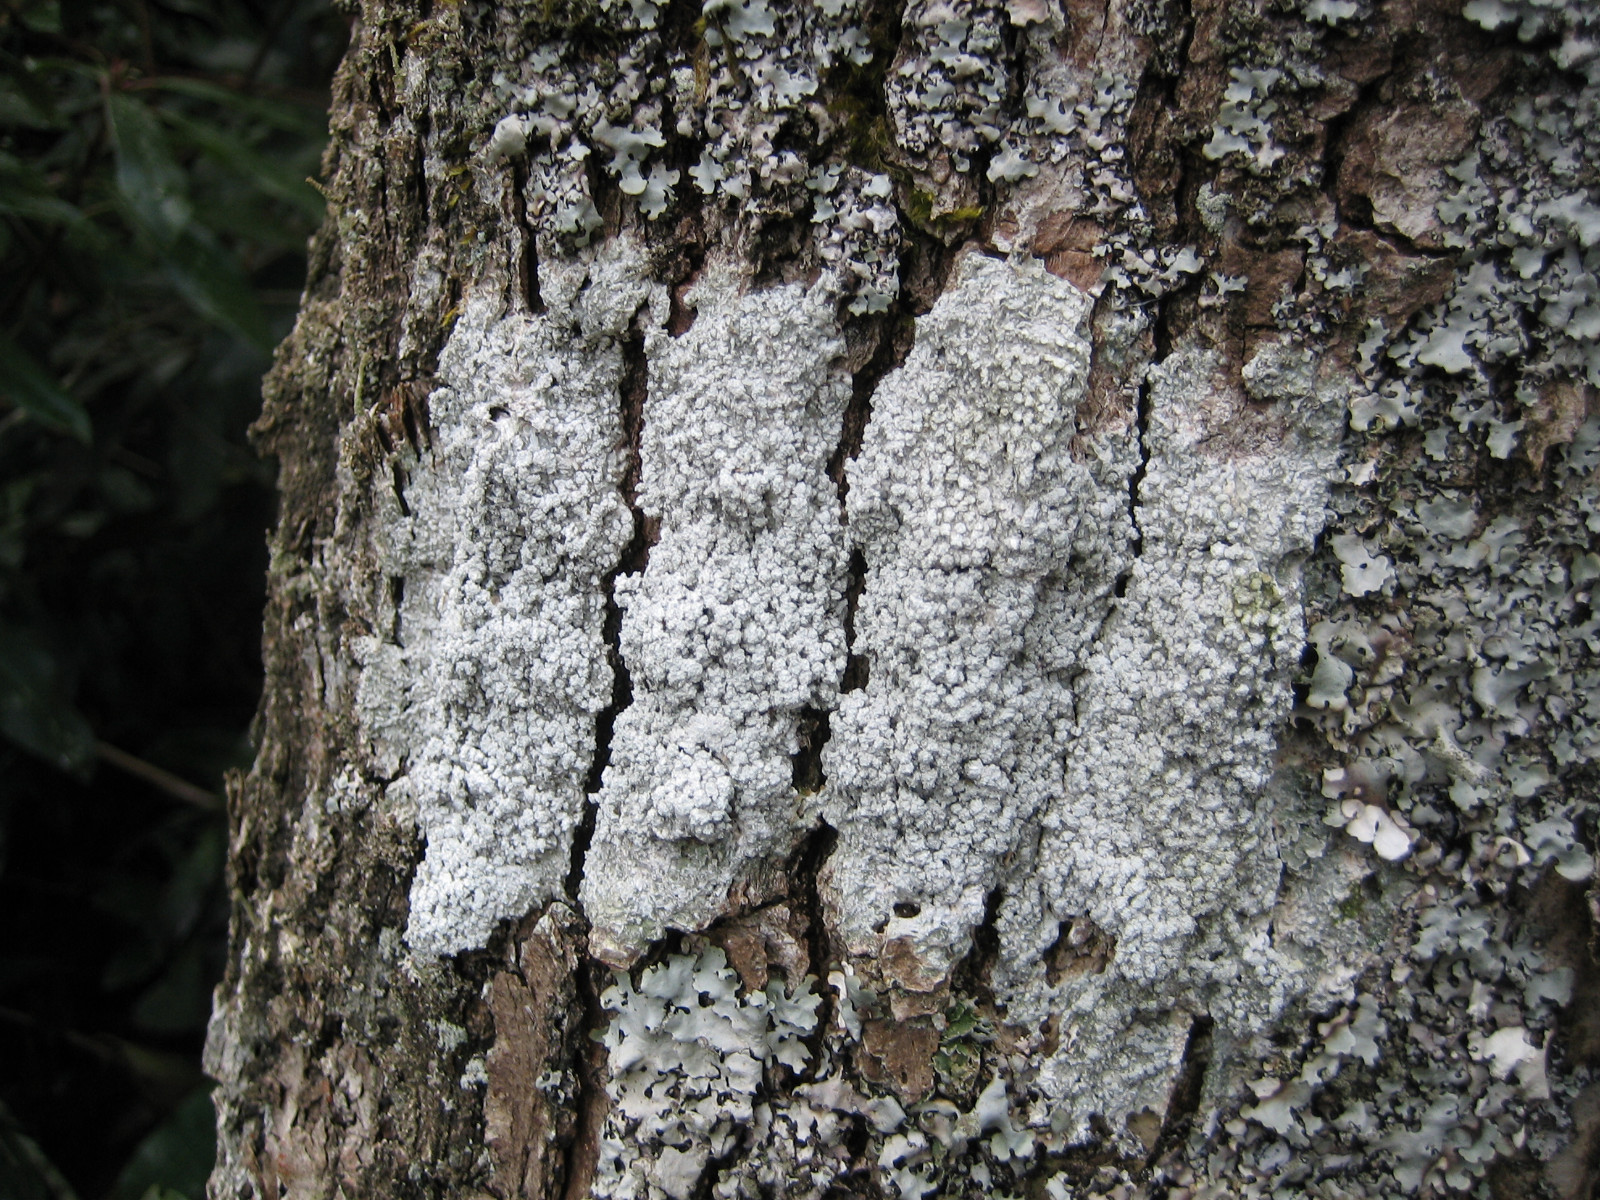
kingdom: Fungi
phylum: Ascomycota
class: Lecanoromycetes
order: Pertusariales
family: Pertusariaceae
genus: Lepra
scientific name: Lepra albescens
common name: hvidmelet prikvortelav
